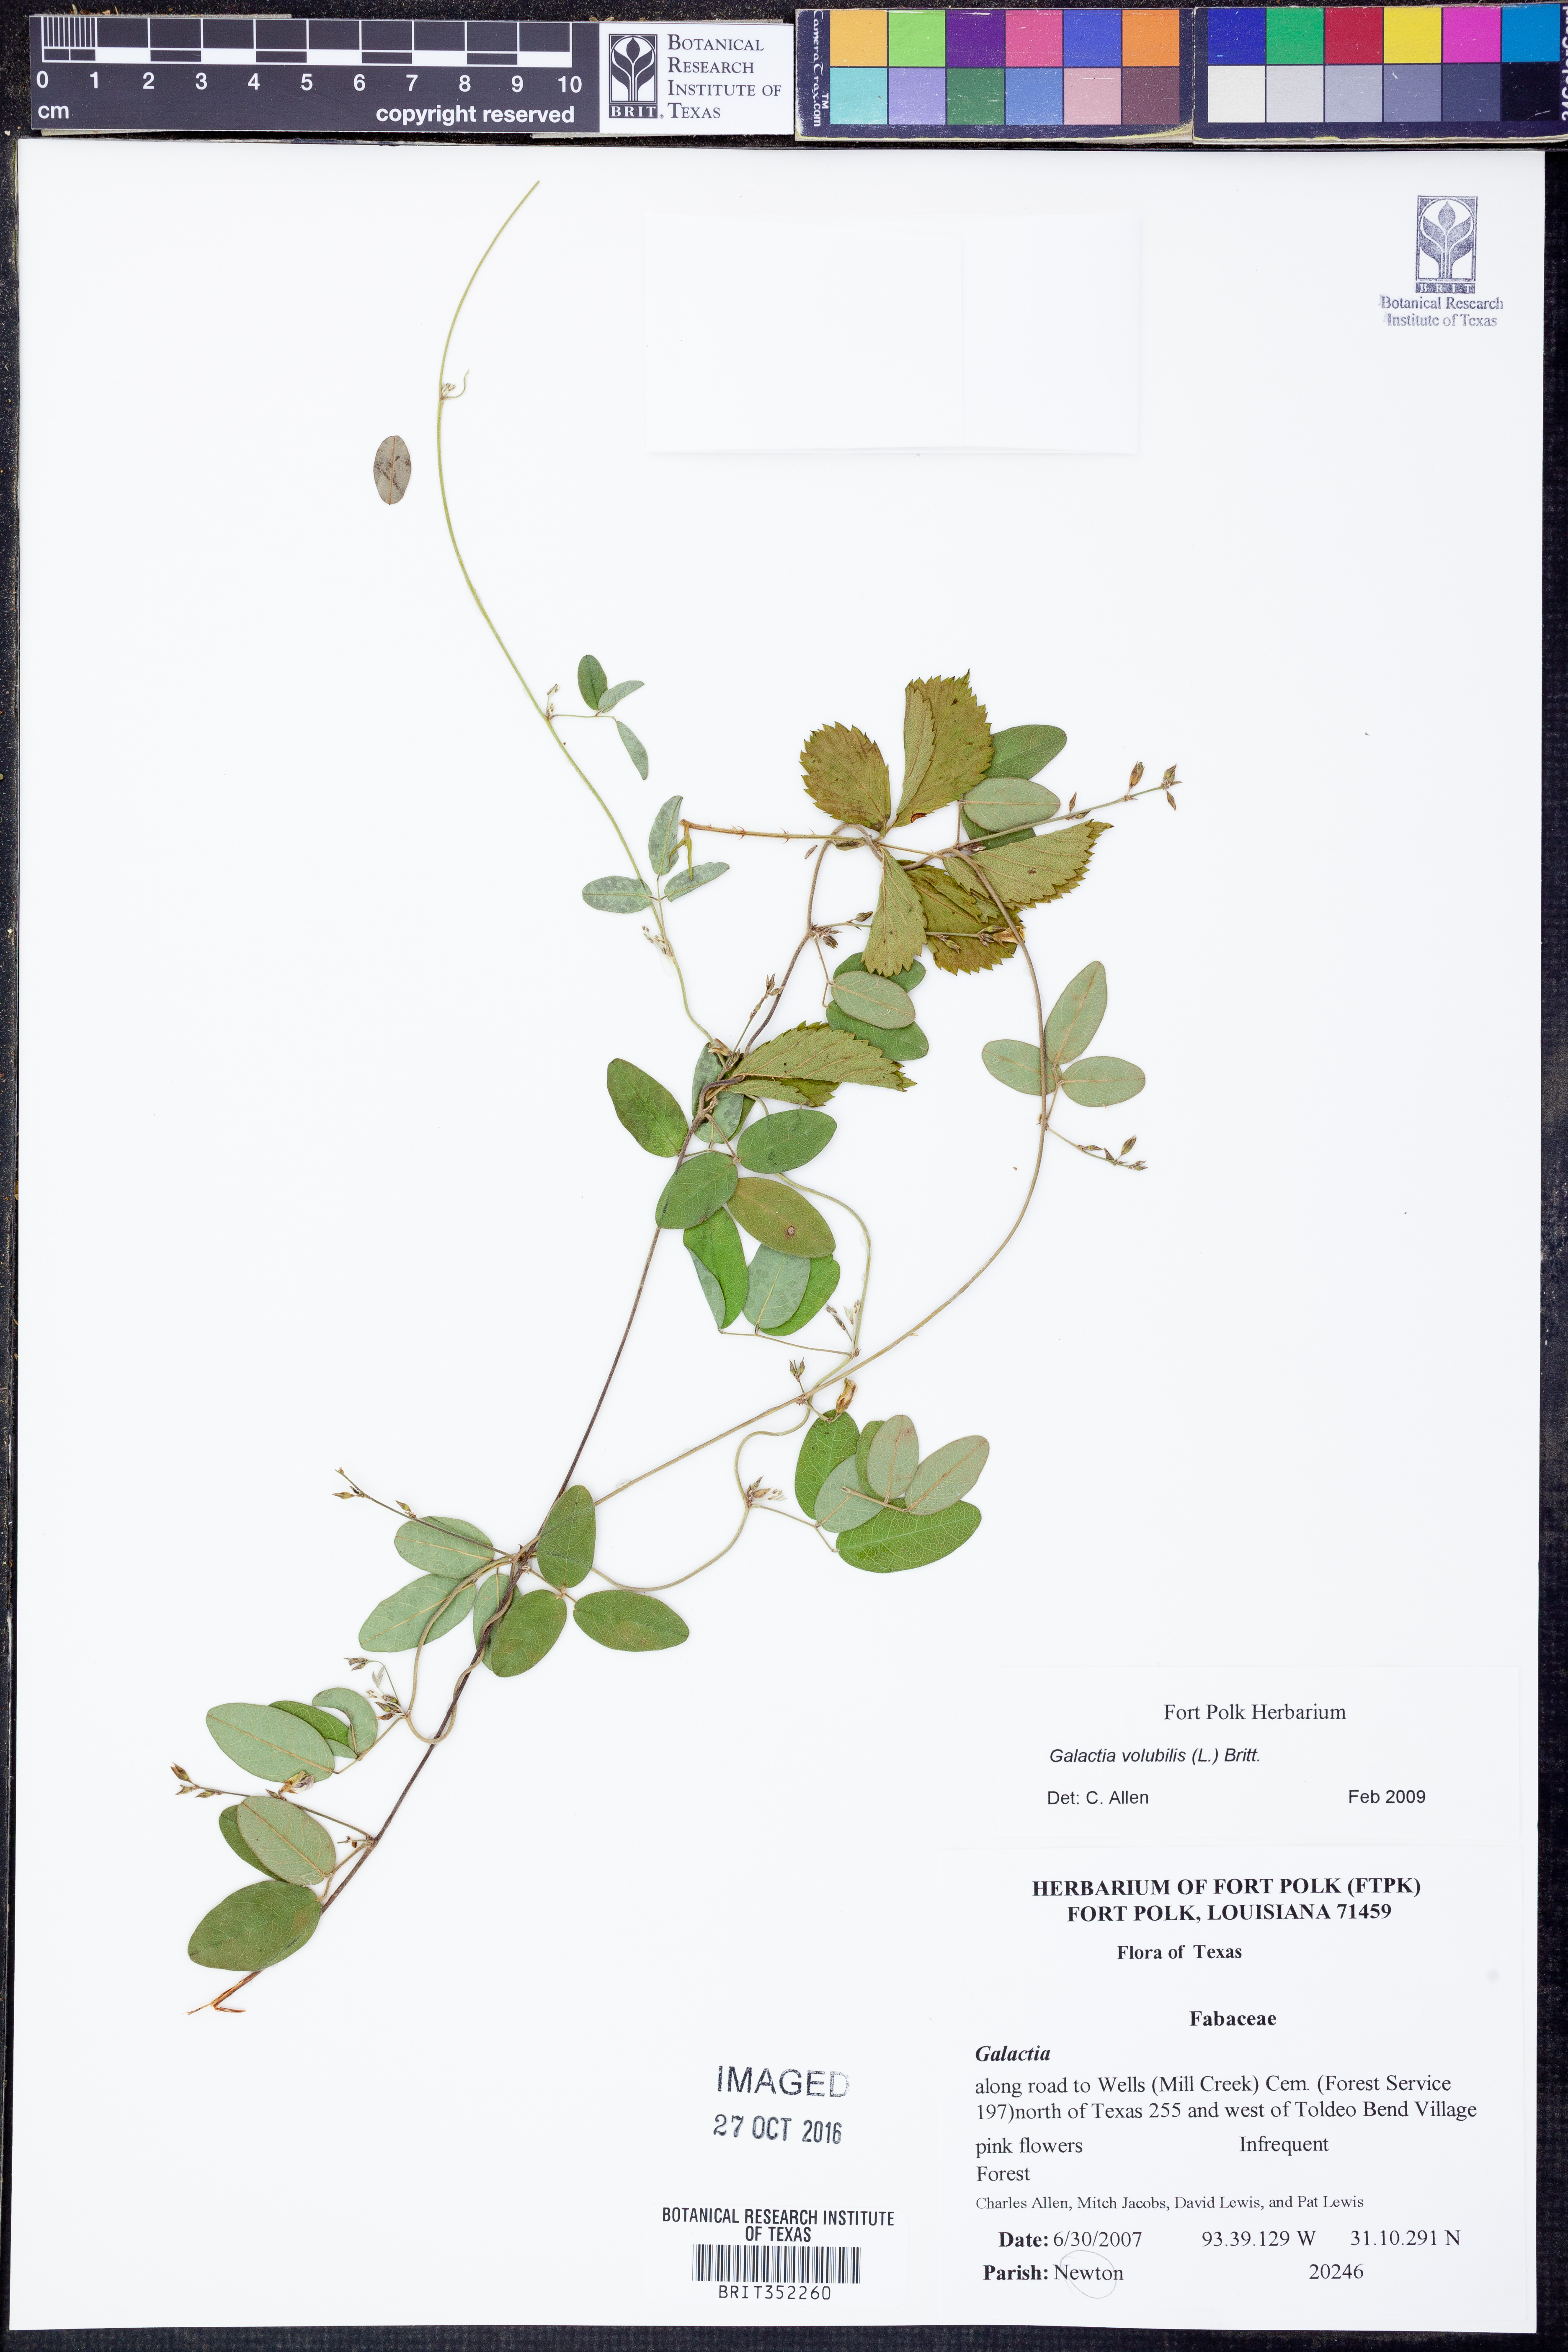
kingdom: Plantae
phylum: Tracheophyta
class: Magnoliopsida
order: Fabales
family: Fabaceae
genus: Galactia
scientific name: Galactia volubilis
